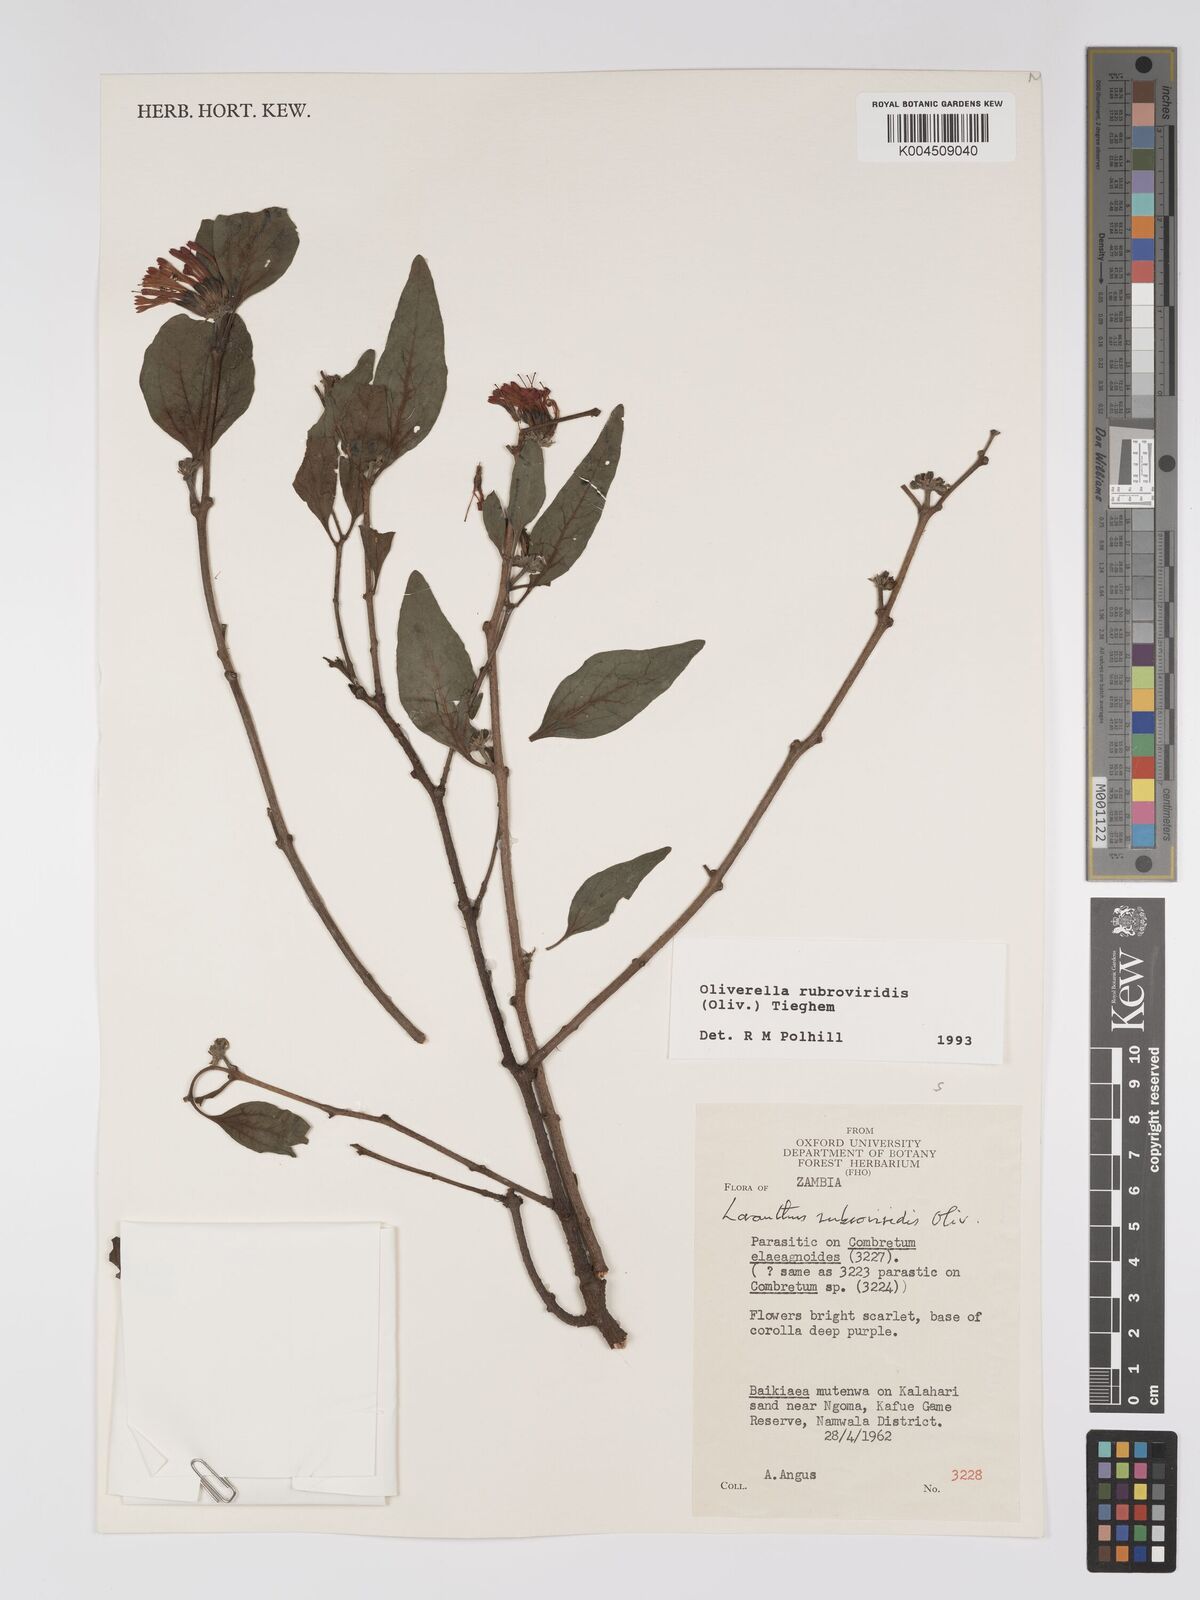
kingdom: Plantae
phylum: Tracheophyta
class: Magnoliopsida
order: Santalales
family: Loranthaceae
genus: Oliverella
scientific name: Oliverella rubroviridis
